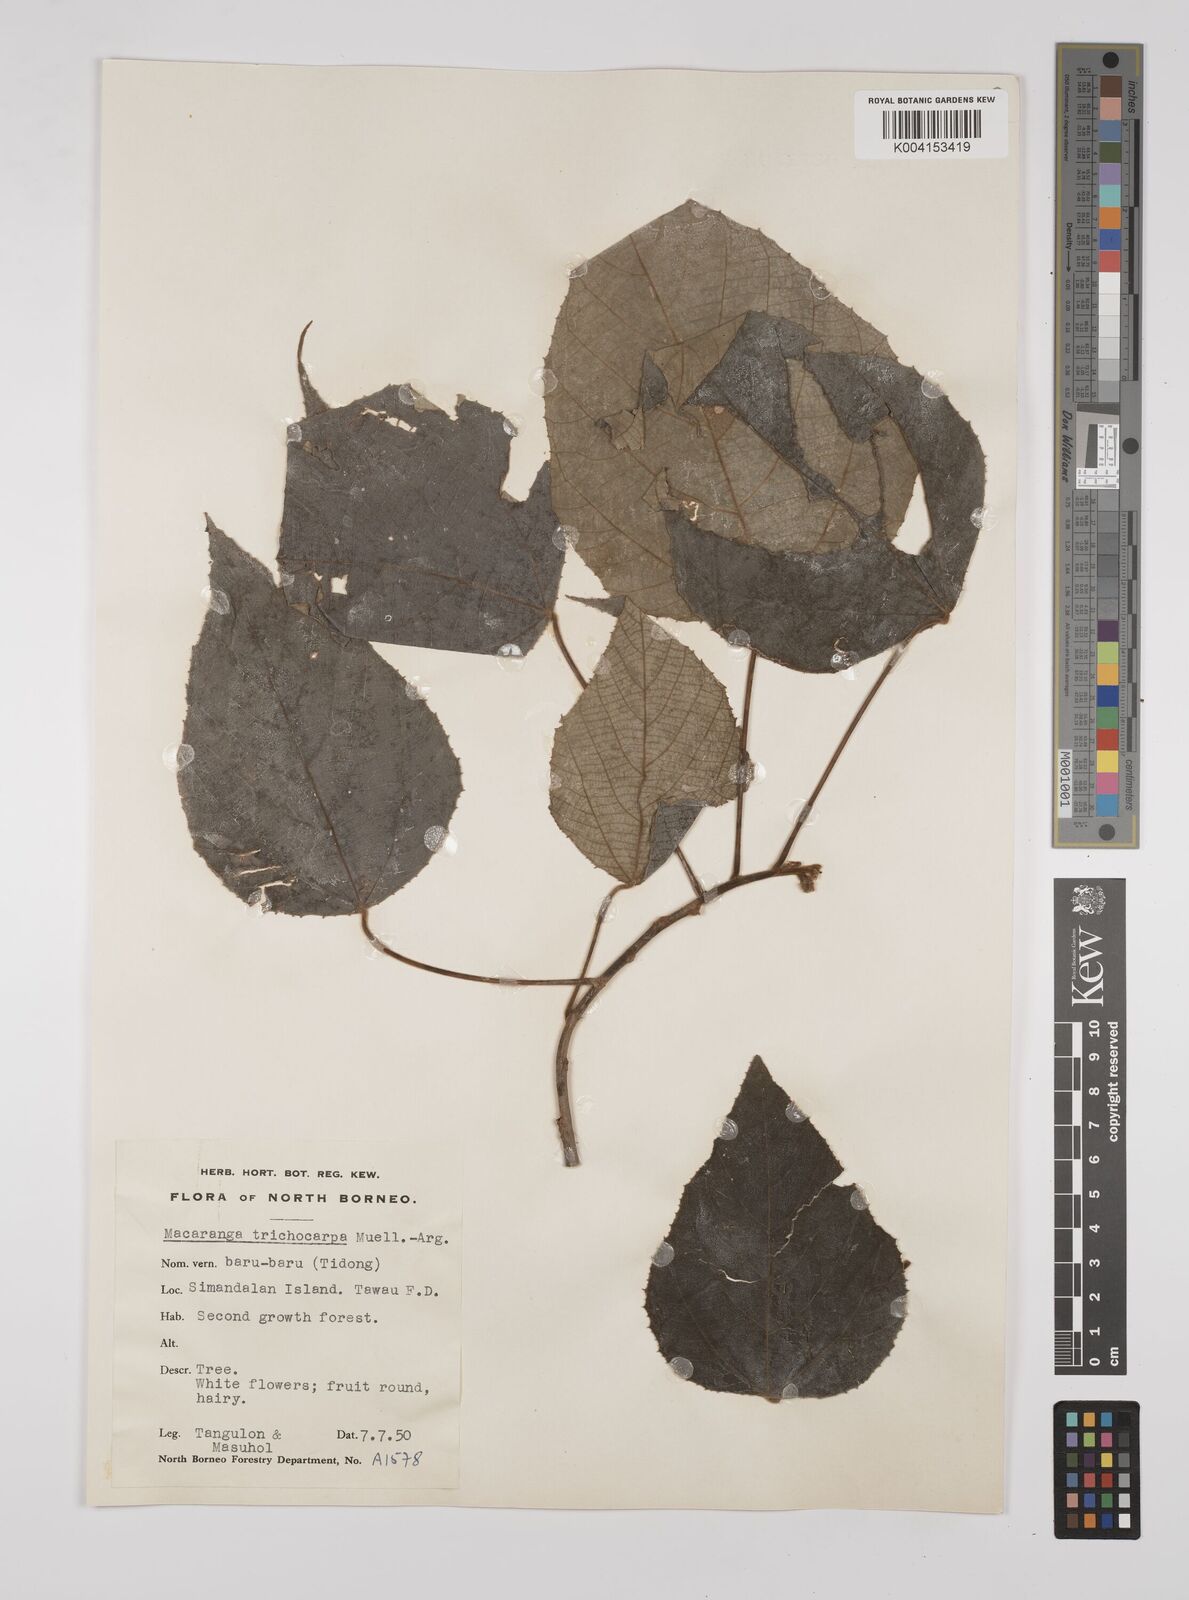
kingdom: Plantae
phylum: Tracheophyta
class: Magnoliopsida
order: Malpighiales
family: Euphorbiaceae
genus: Macaranga
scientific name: Macaranga trichocarpa
